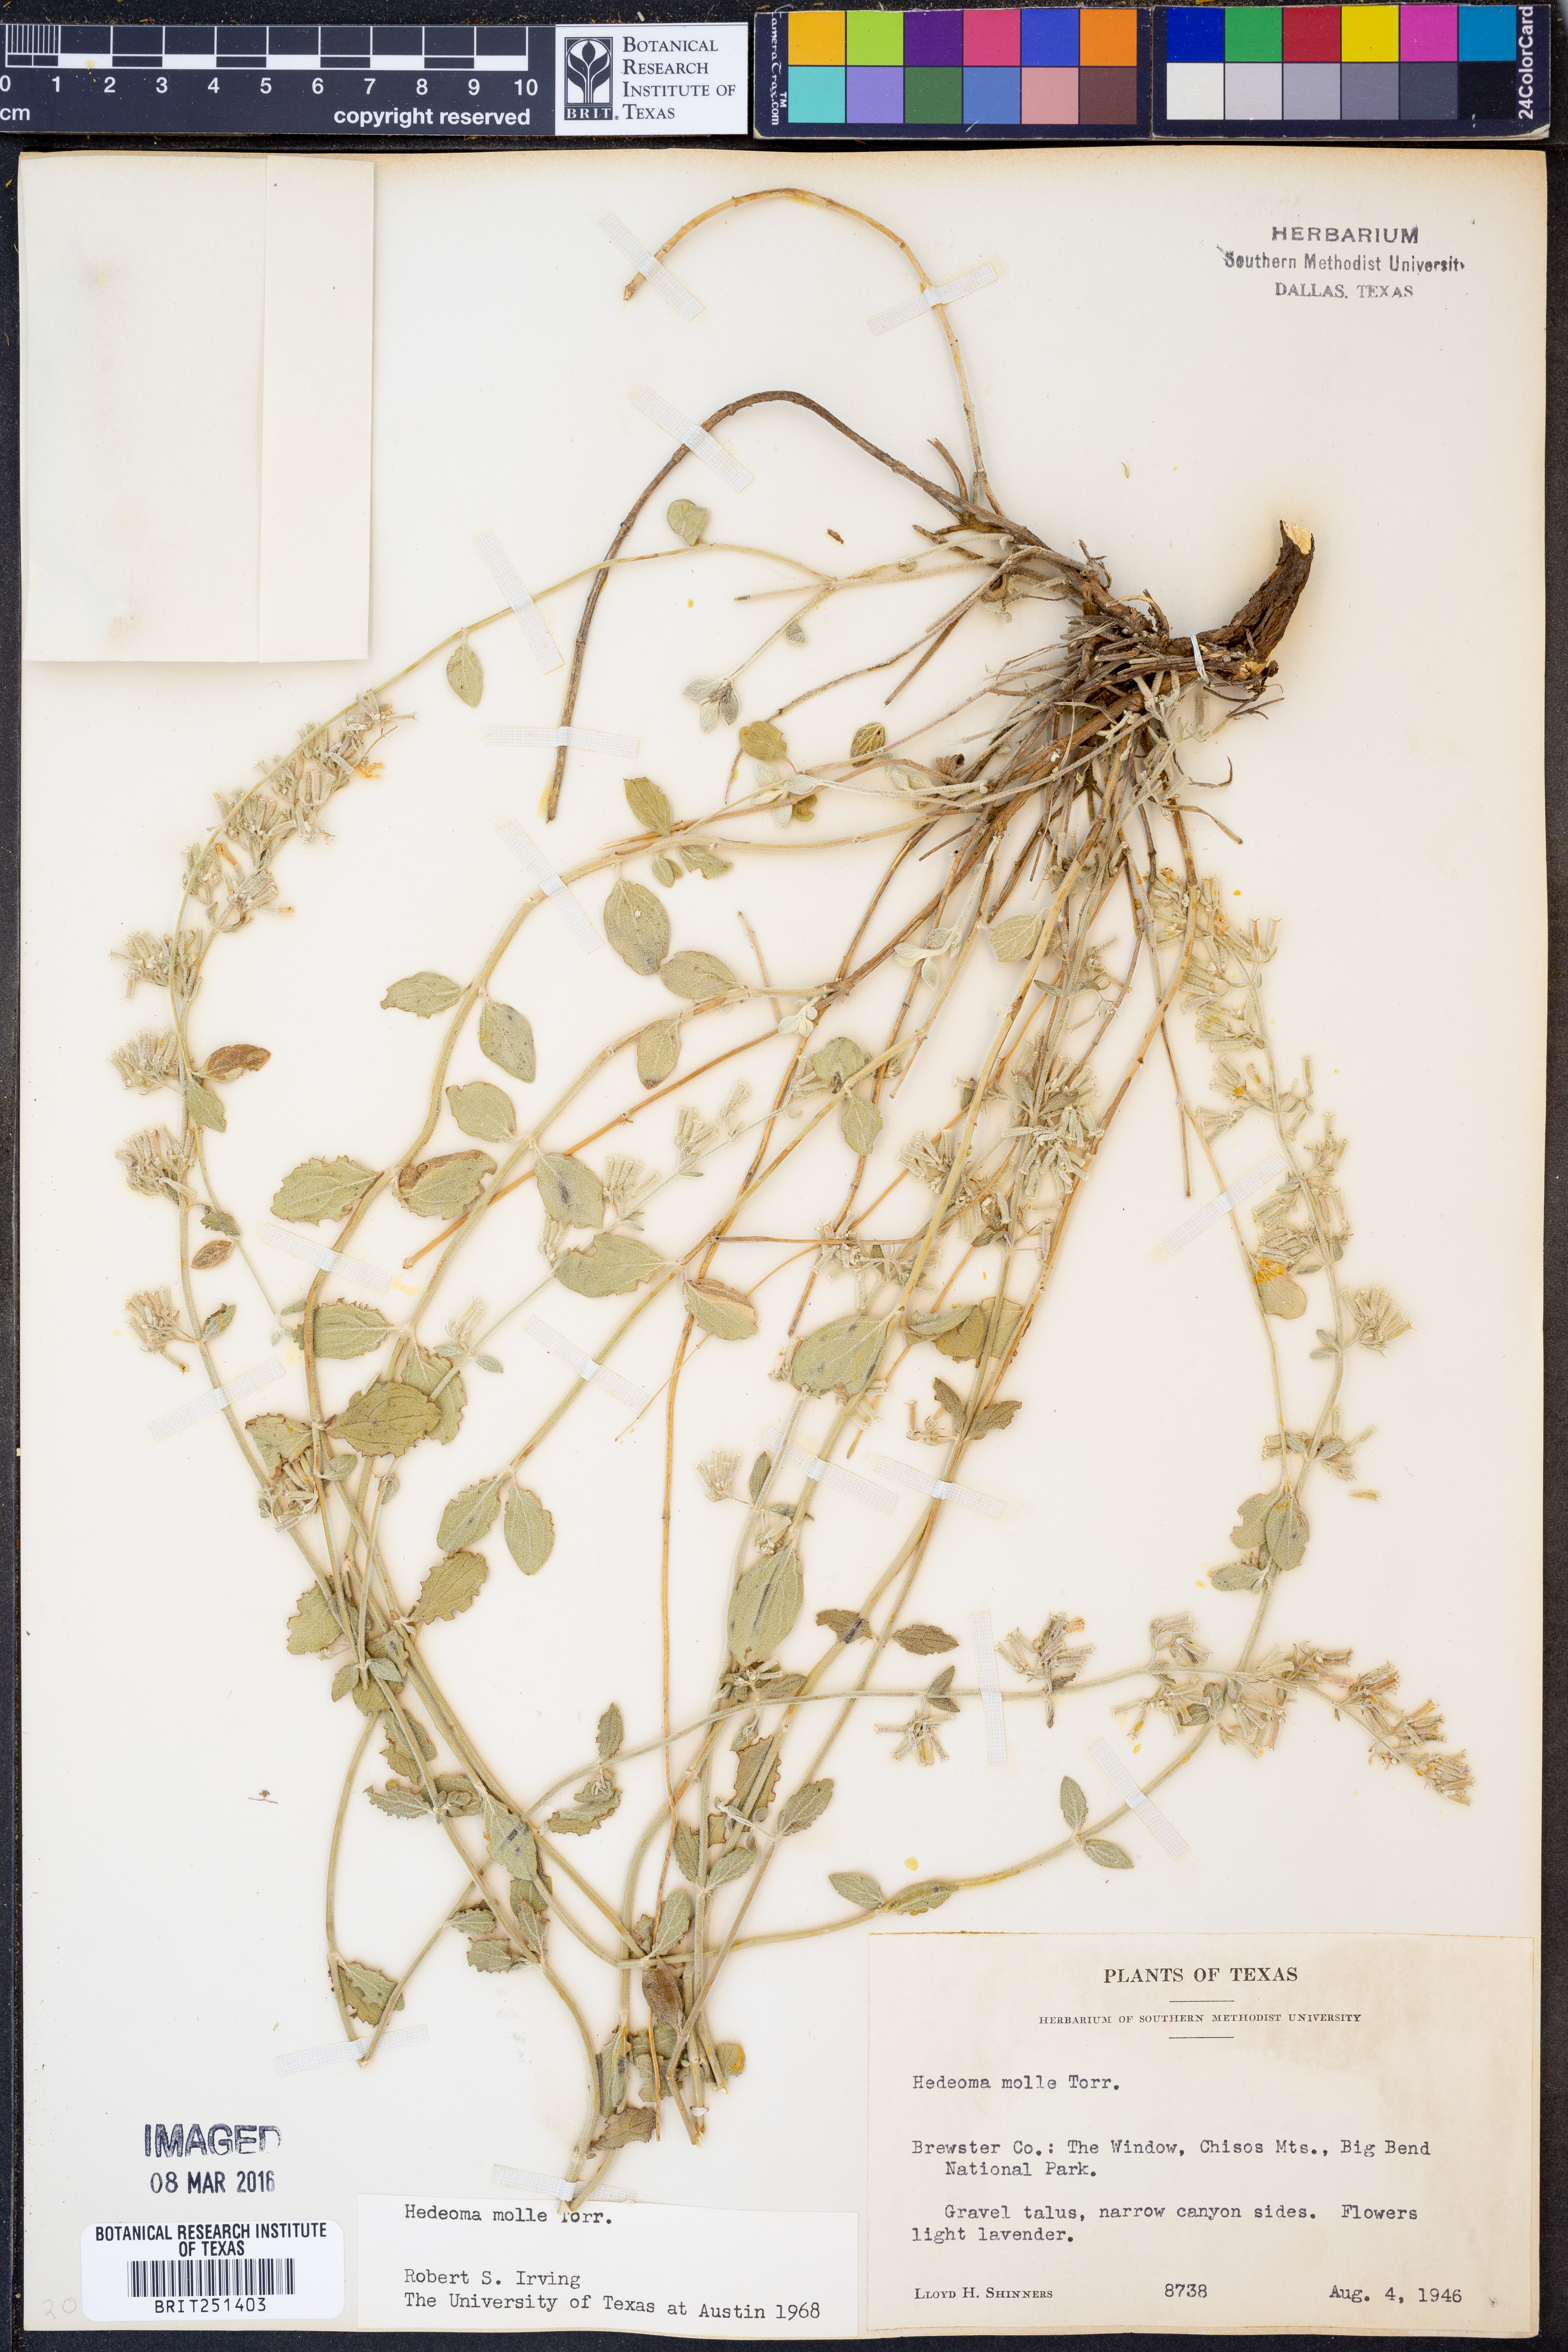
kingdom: Plantae
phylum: Tracheophyta
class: Magnoliopsida
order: Lamiales
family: Lamiaceae
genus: Hedeoma
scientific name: Hedeoma mollis
